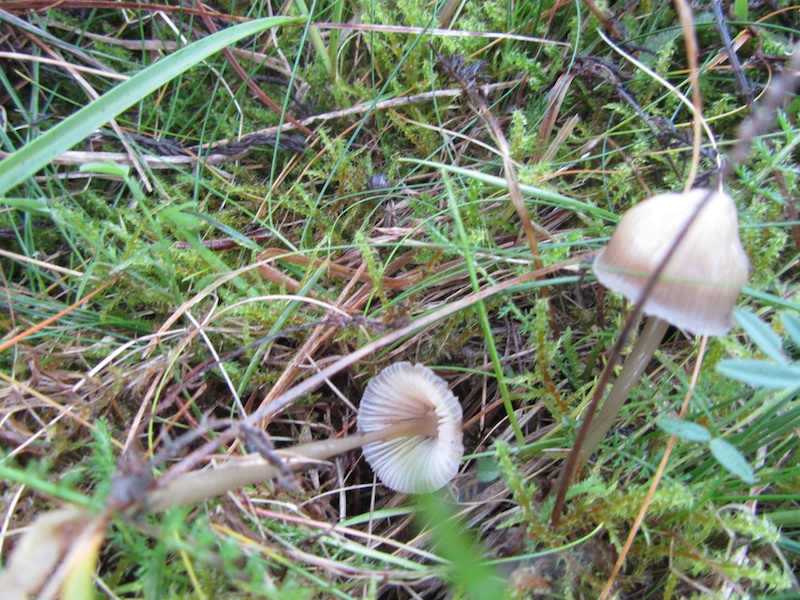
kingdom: Fungi
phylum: Basidiomycota
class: Agaricomycetes
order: Agaricales
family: Mycenaceae
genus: Mycena
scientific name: Mycena epipterygia
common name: Yellowleg bonnet
